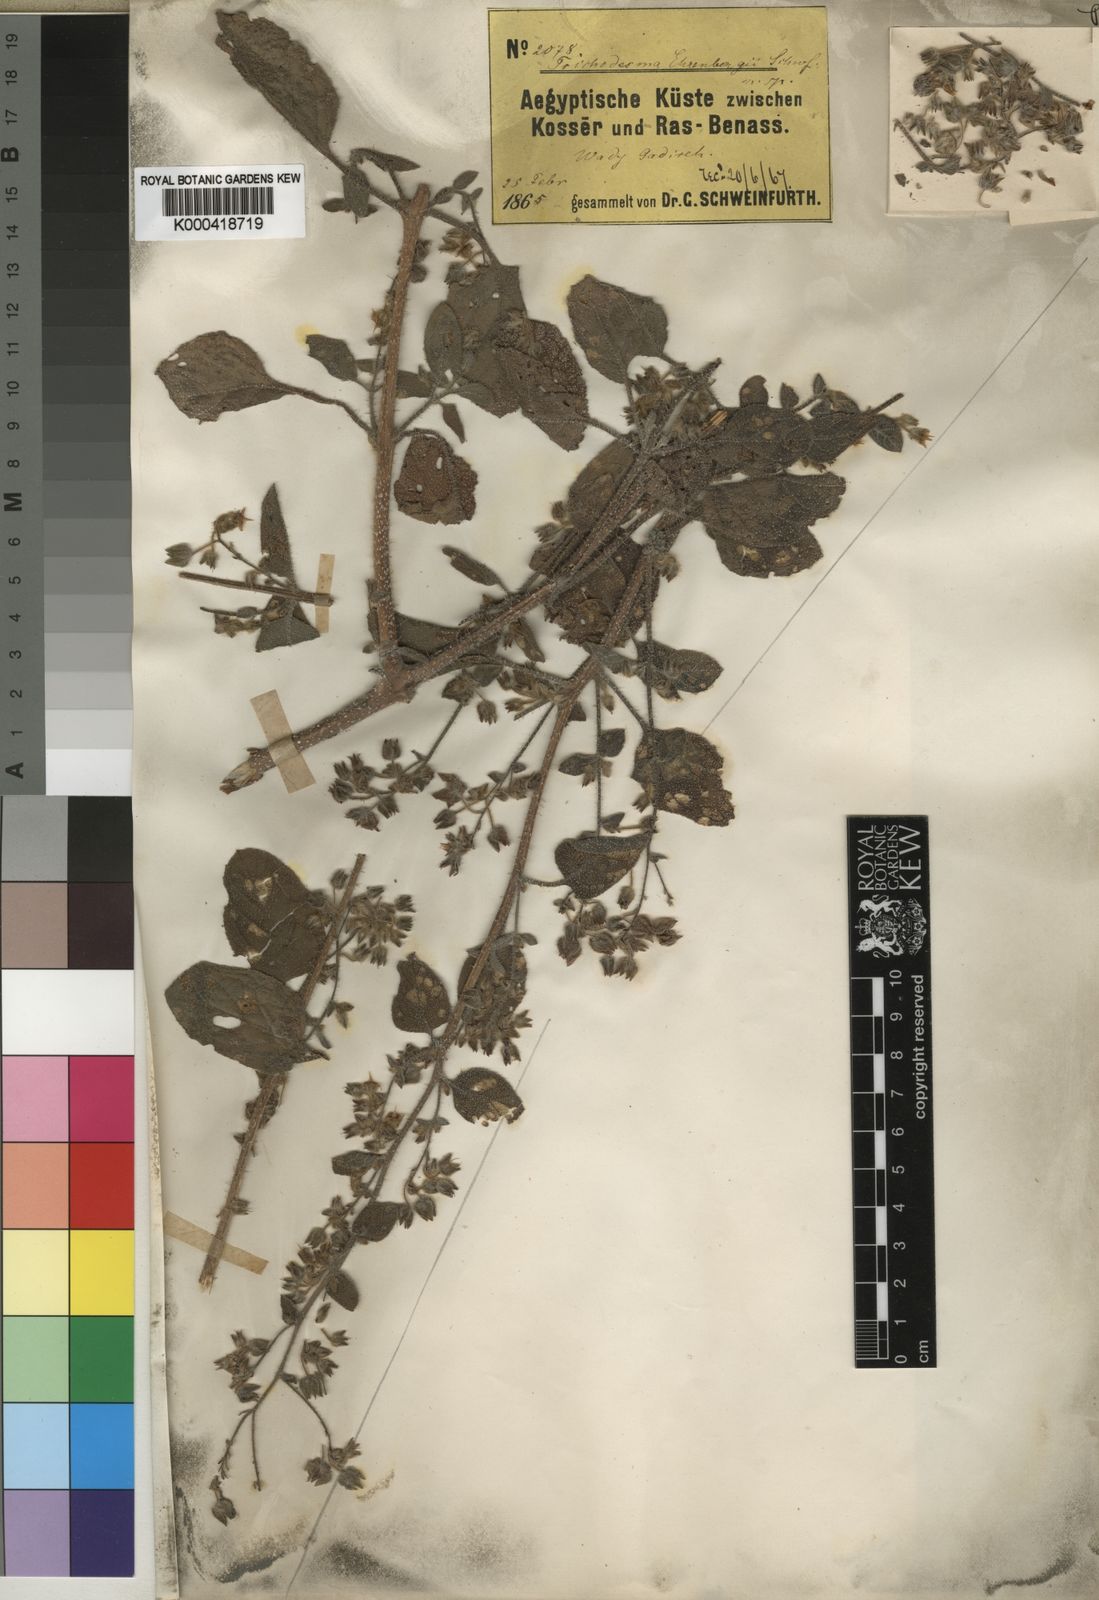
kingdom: Plantae
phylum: Tracheophyta
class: Magnoliopsida
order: Boraginales
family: Boraginaceae
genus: Trichodesma
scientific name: Trichodesma
